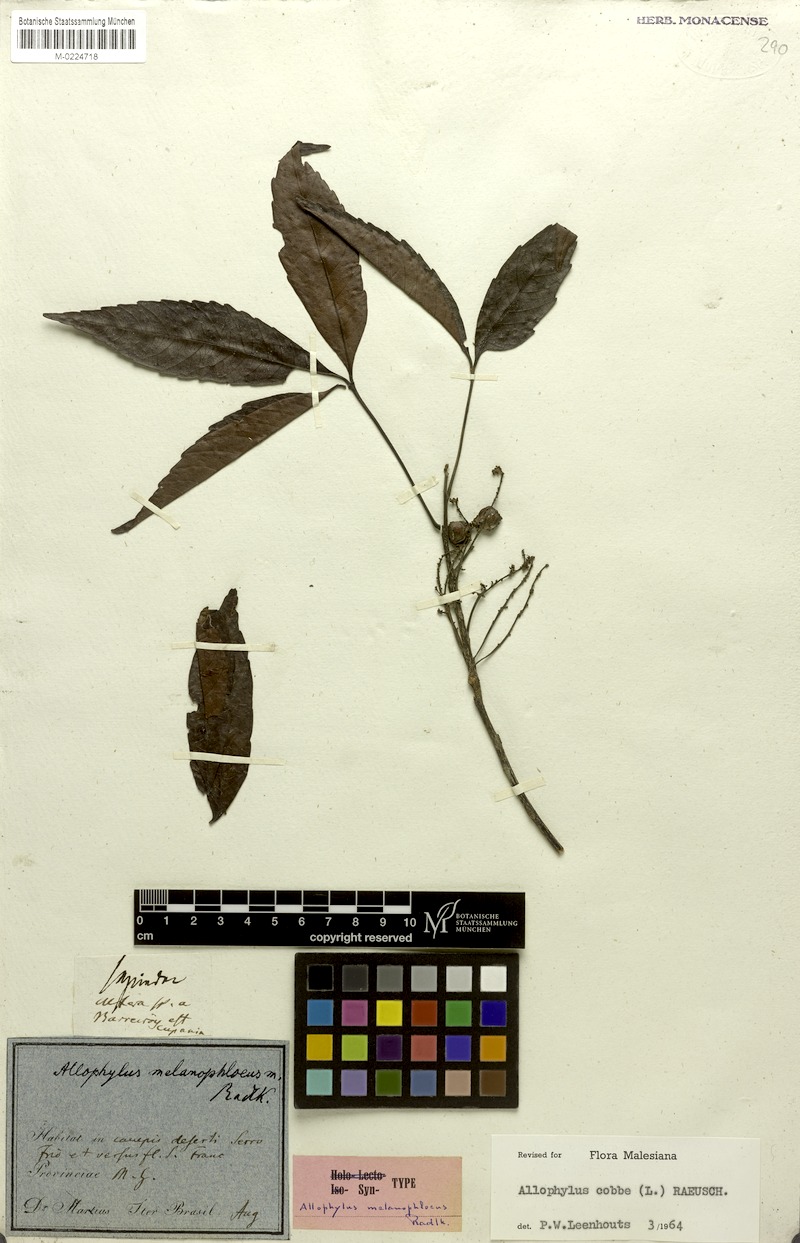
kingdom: Plantae
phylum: Tracheophyta
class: Magnoliopsida
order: Sapindales
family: Sapindaceae
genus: Allophylus
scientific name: Allophylus melanophloeus
